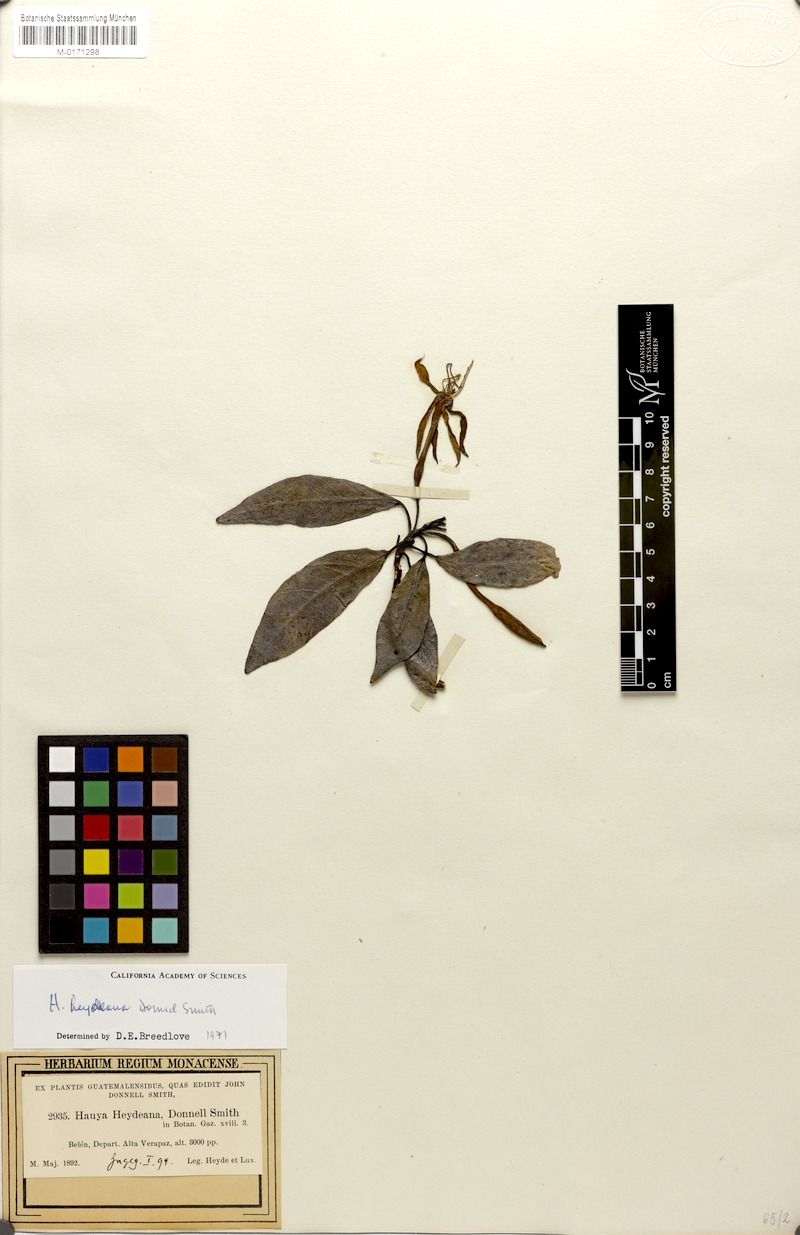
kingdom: Plantae
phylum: Tracheophyta
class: Magnoliopsida
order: Myrtales
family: Onagraceae
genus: Hauya
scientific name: Hauya heydeana
